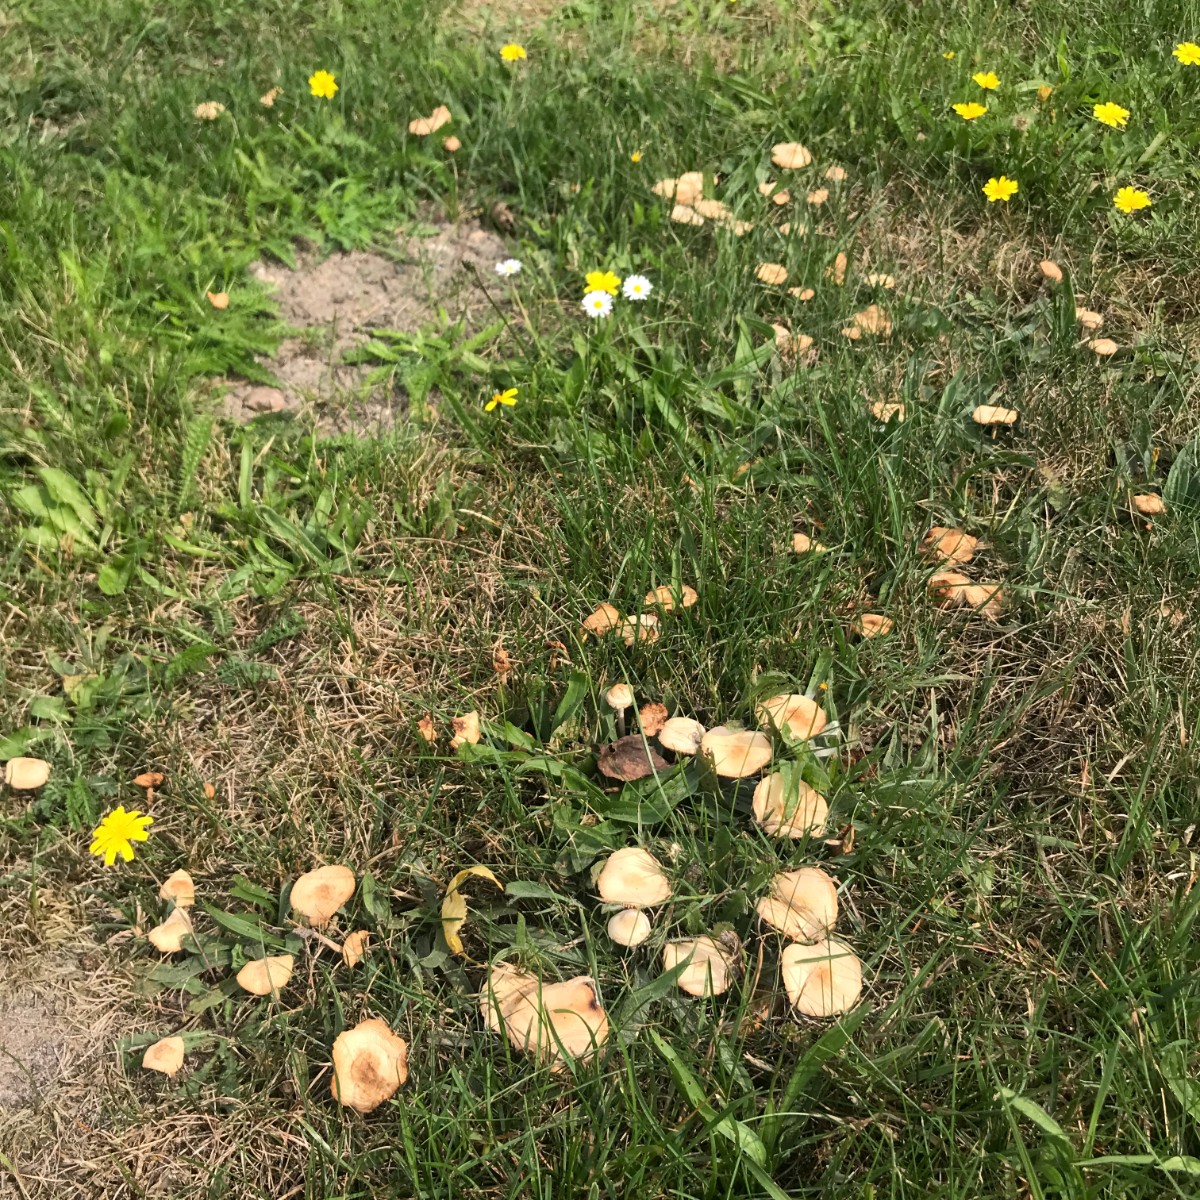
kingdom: Fungi
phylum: Basidiomycota
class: Agaricomycetes
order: Agaricales
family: Marasmiaceae
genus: Marasmius
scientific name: Marasmius oreades
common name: elledans-bruskhat
